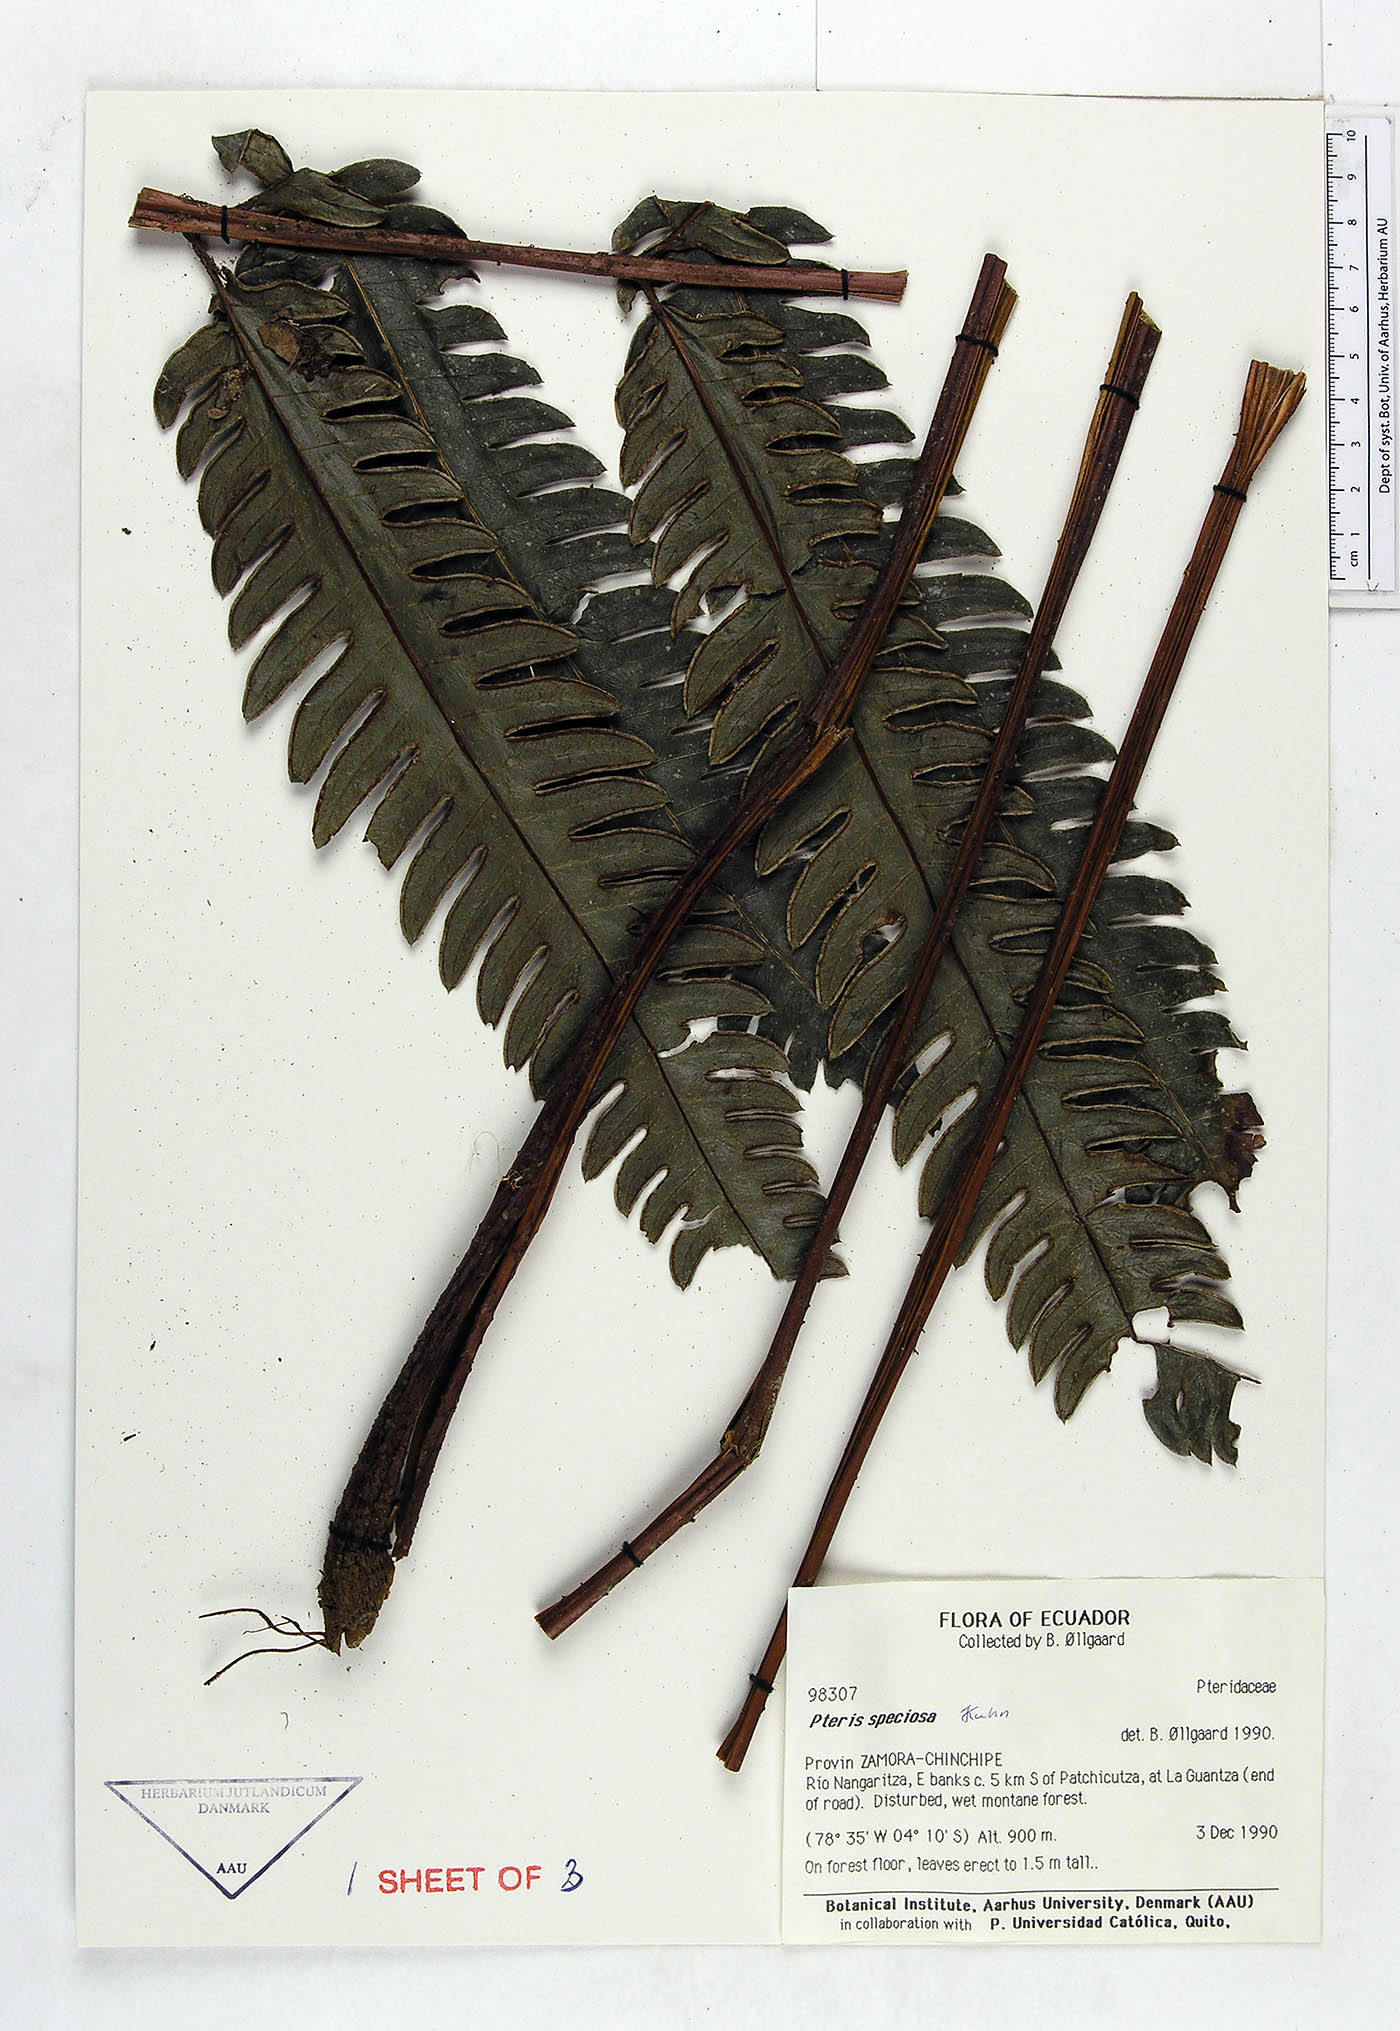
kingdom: Plantae
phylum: Tracheophyta
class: Polypodiopsida
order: Polypodiales
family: Pteridaceae
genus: Pteris
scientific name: Pteris speciosa
